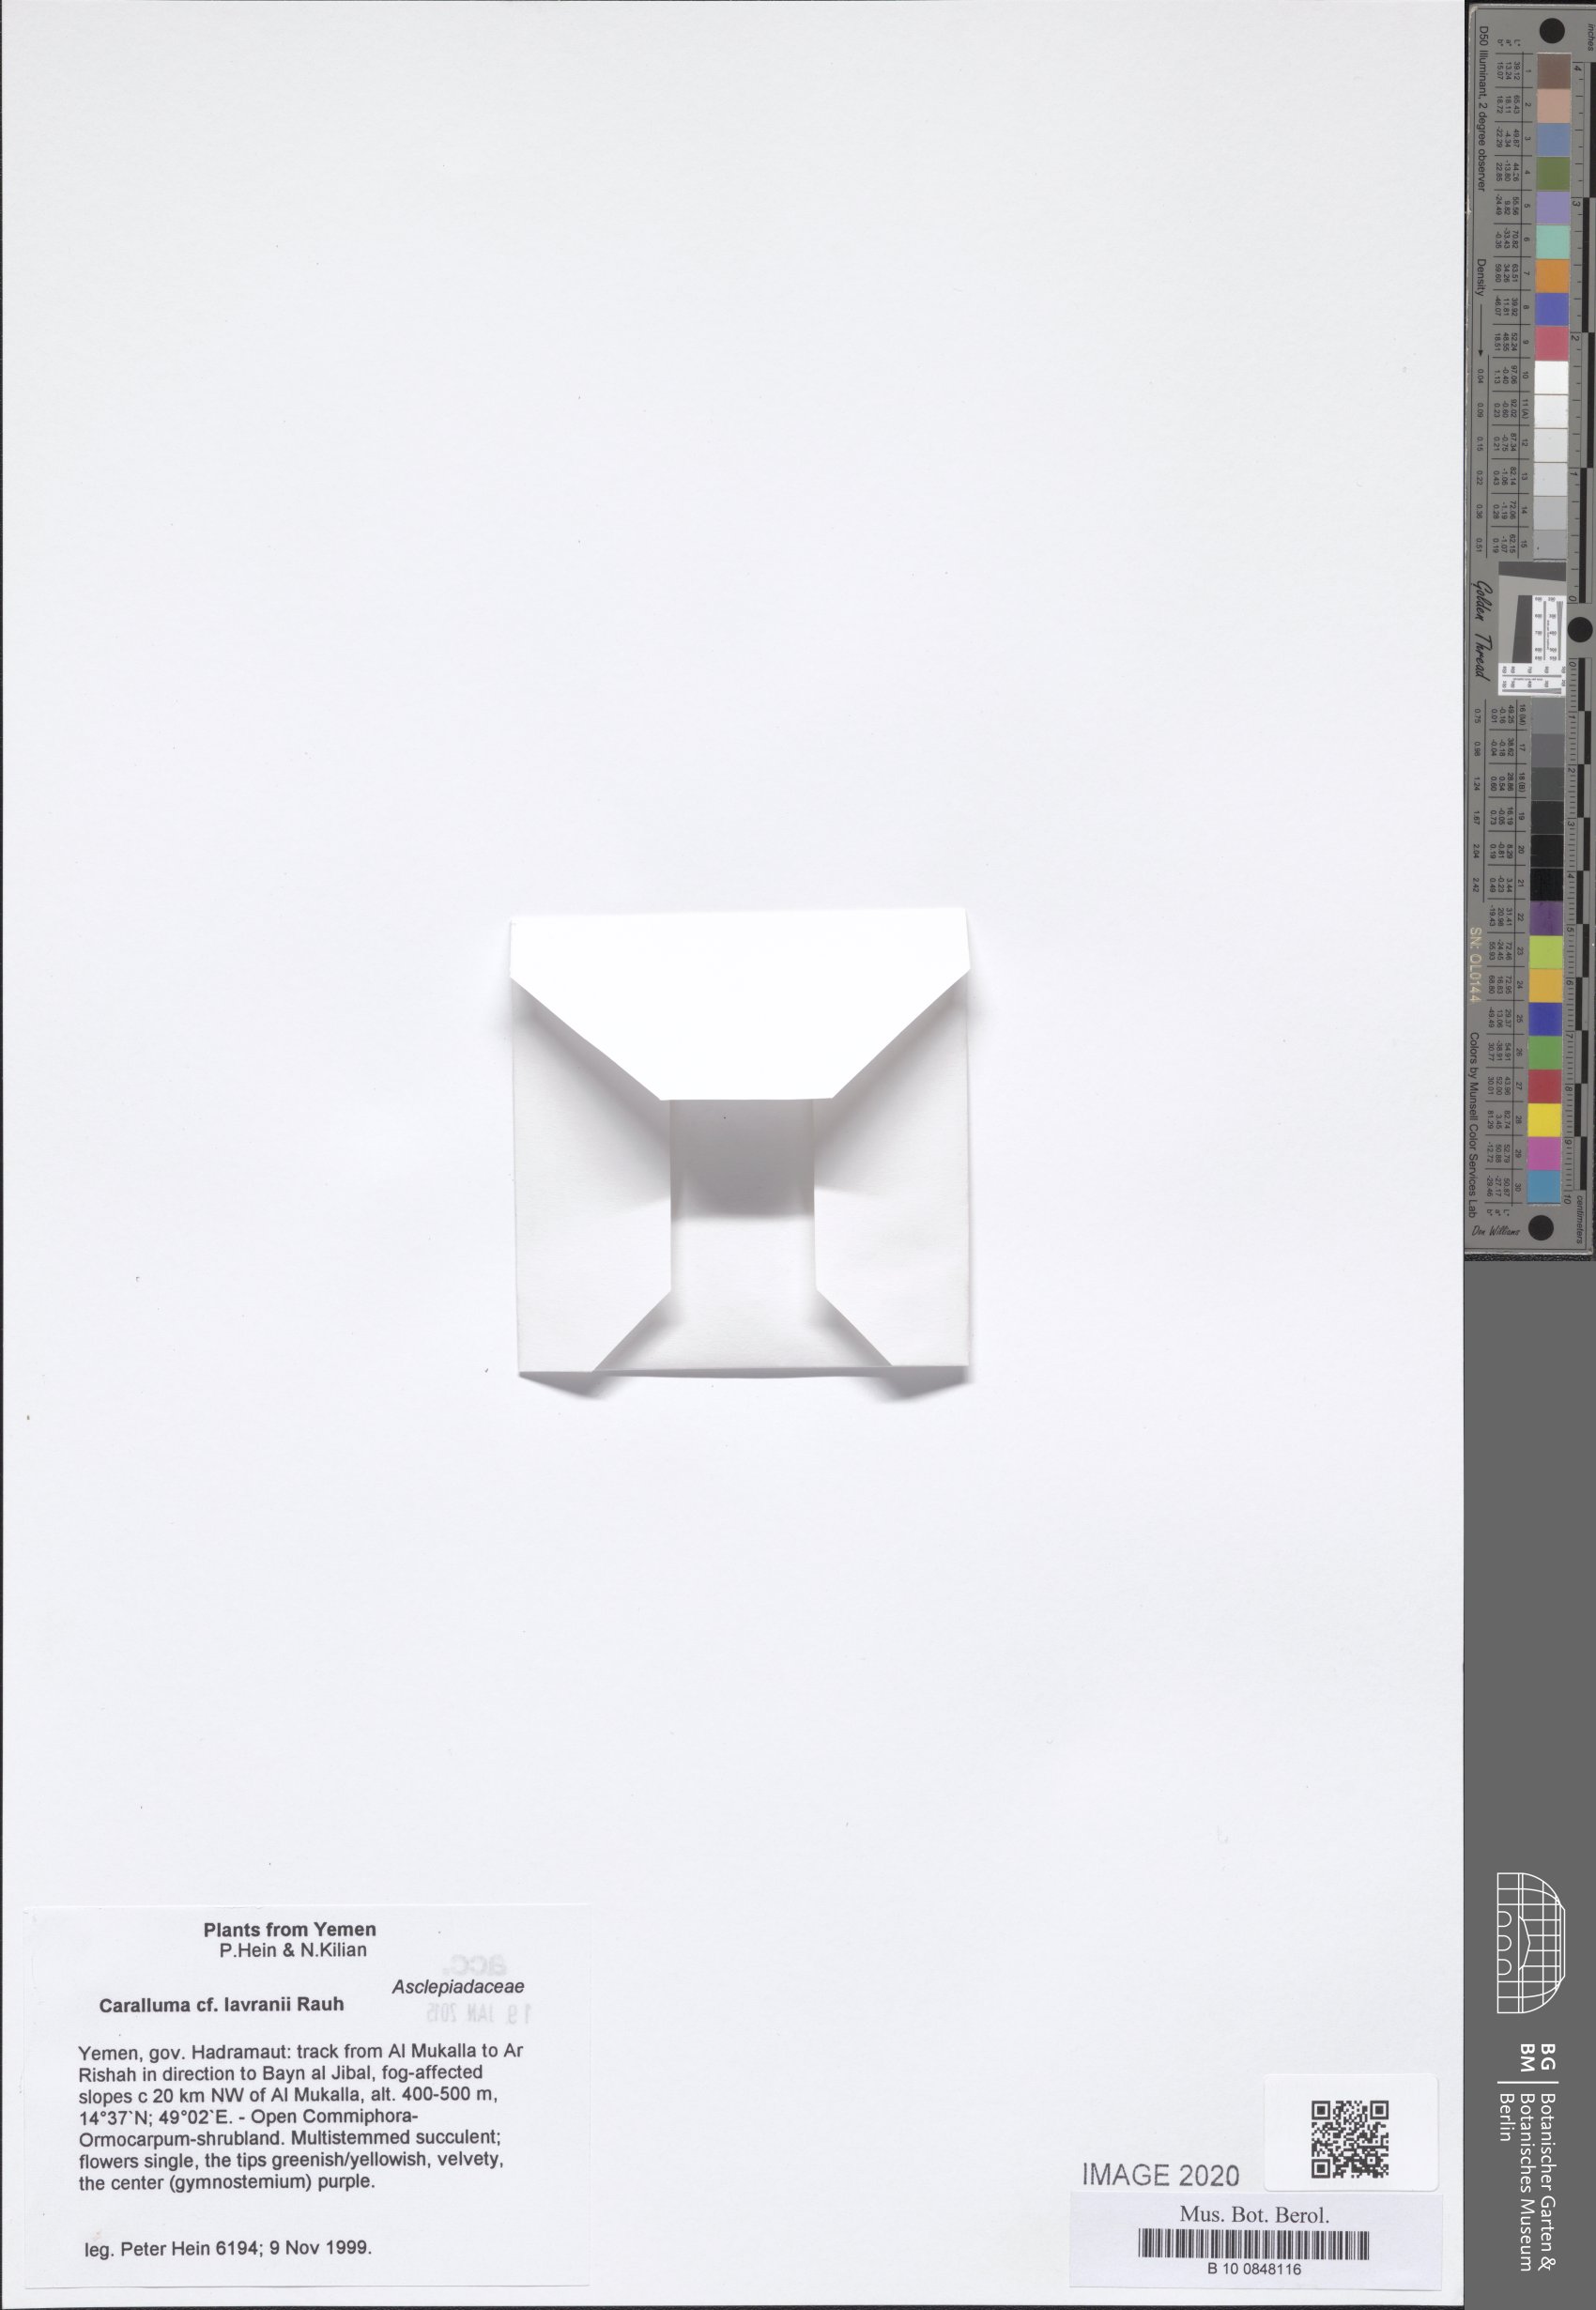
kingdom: Plantae
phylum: Tracheophyta
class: Magnoliopsida
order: Gentianales
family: Apocynaceae
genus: Ceropegia
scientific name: Ceropegia dolichocarpa
